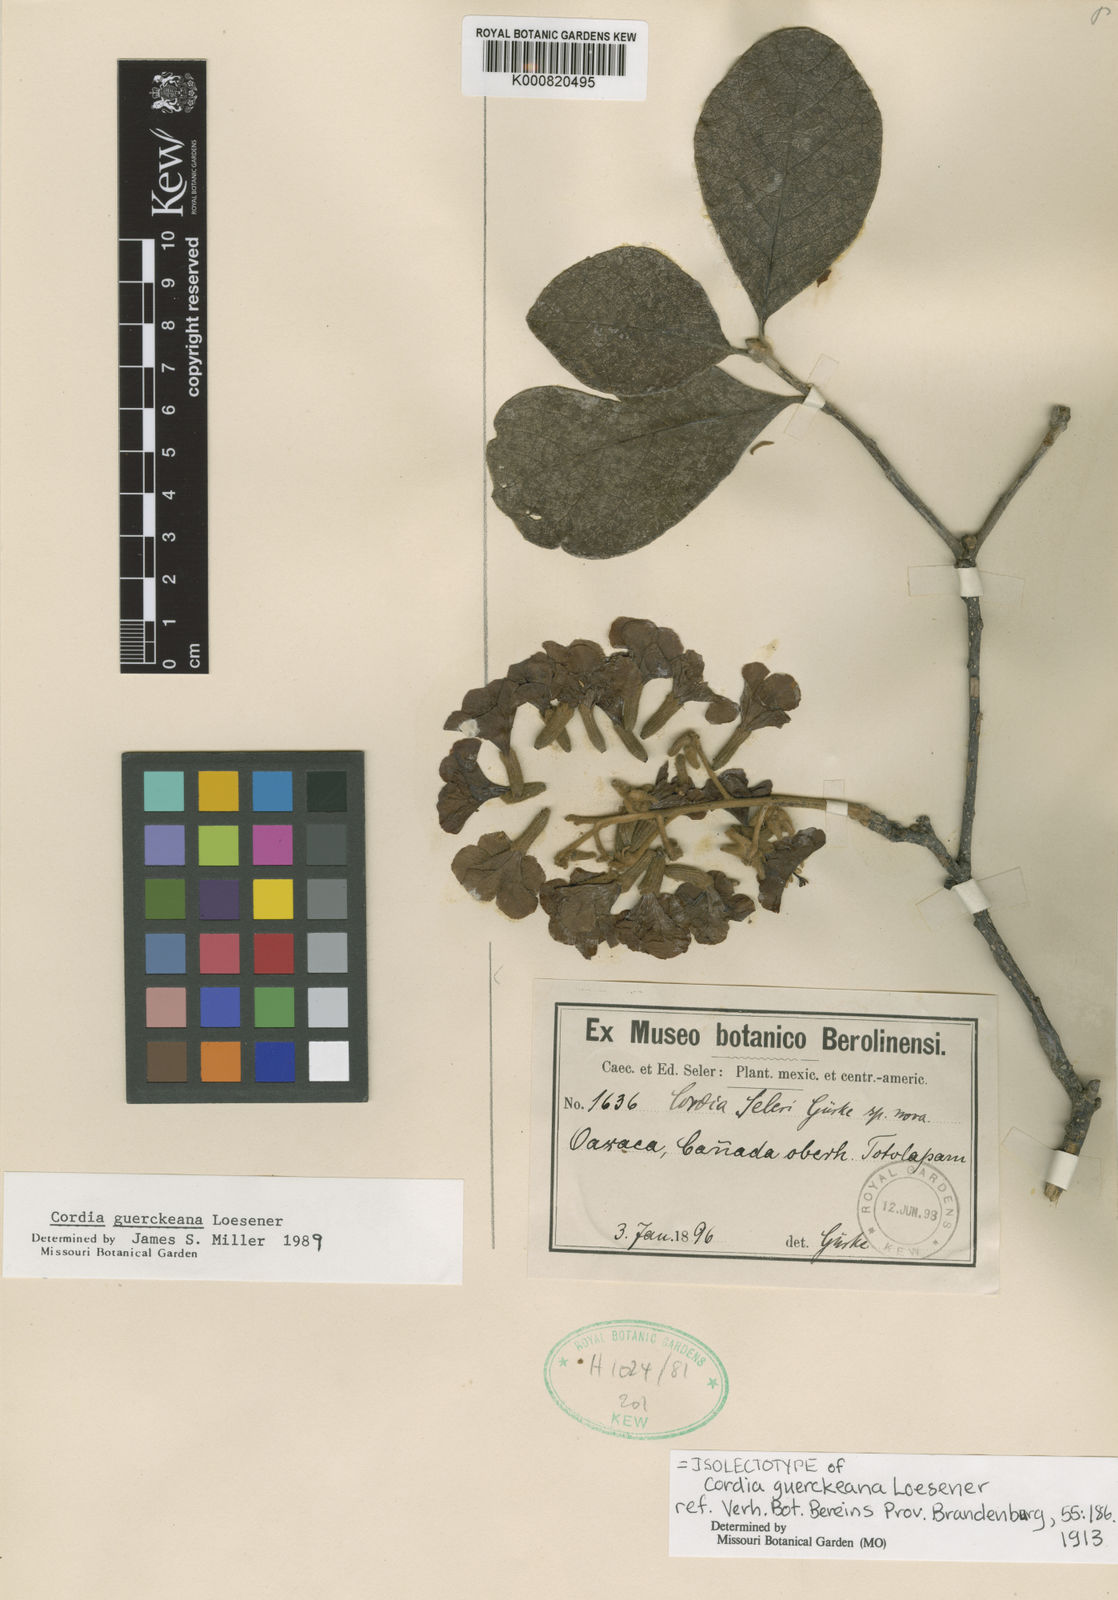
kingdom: Plantae
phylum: Tracheophyta
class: Magnoliopsida
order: Boraginales
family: Cordiaceae
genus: Cordia
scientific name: Cordia guerkeana
